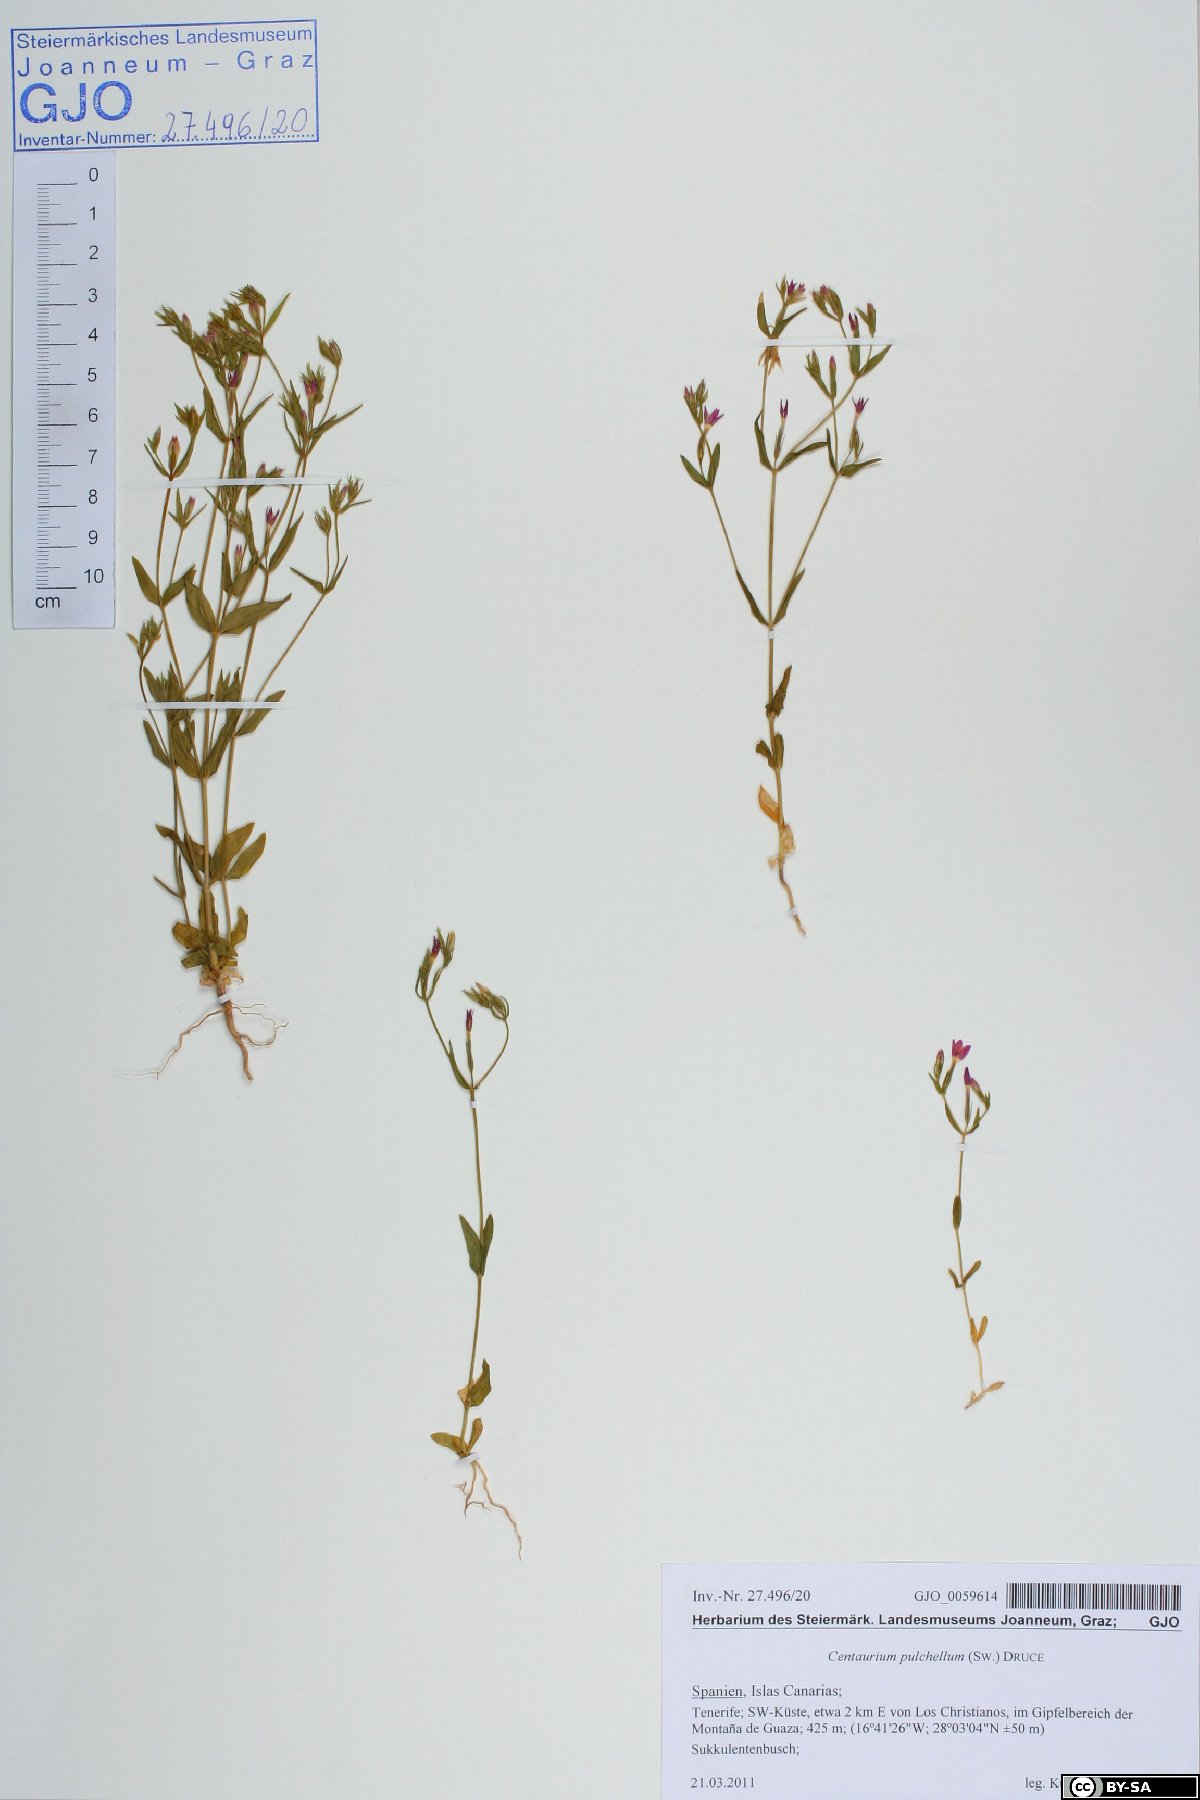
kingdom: Plantae
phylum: Tracheophyta
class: Magnoliopsida
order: Gentianales
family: Gentianaceae
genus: Centaurium
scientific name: Centaurium pulchellum
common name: Lesser centaury
